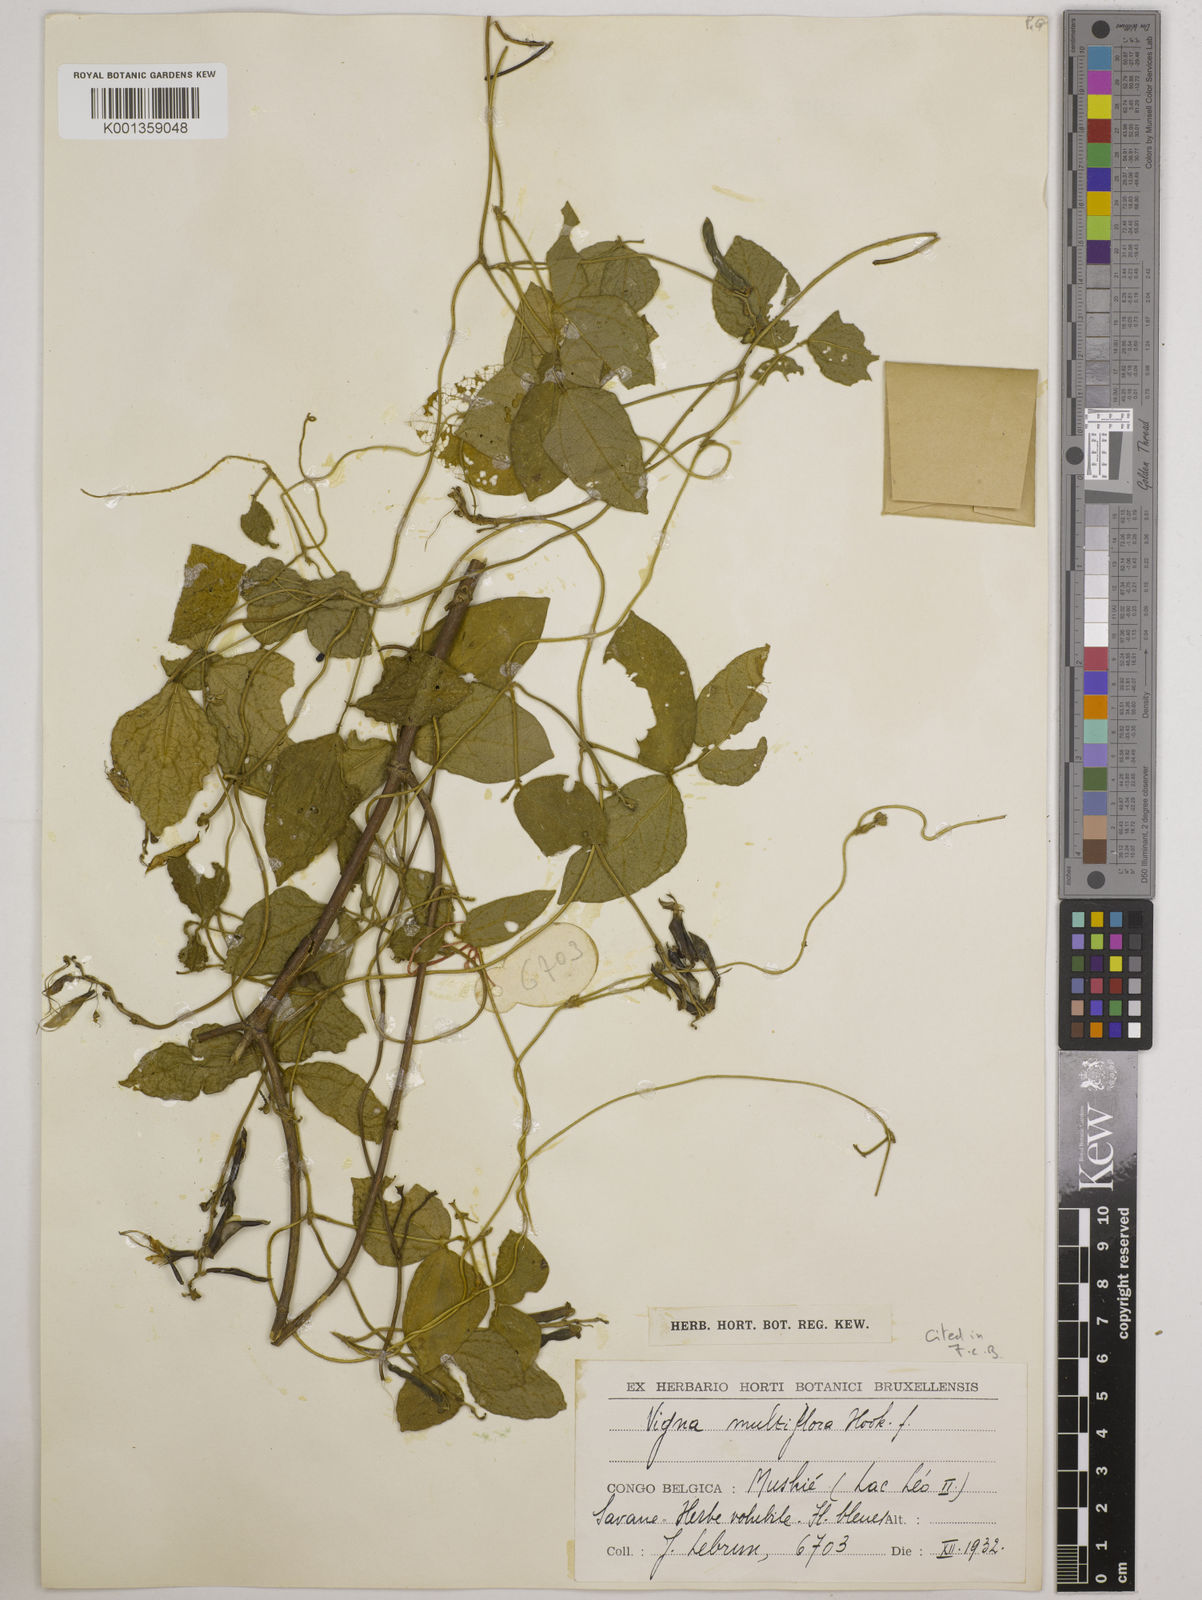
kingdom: Plantae
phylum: Tracheophyta
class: Magnoliopsida
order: Fabales
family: Fabaceae
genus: Vigna
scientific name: Vigna gracilis
